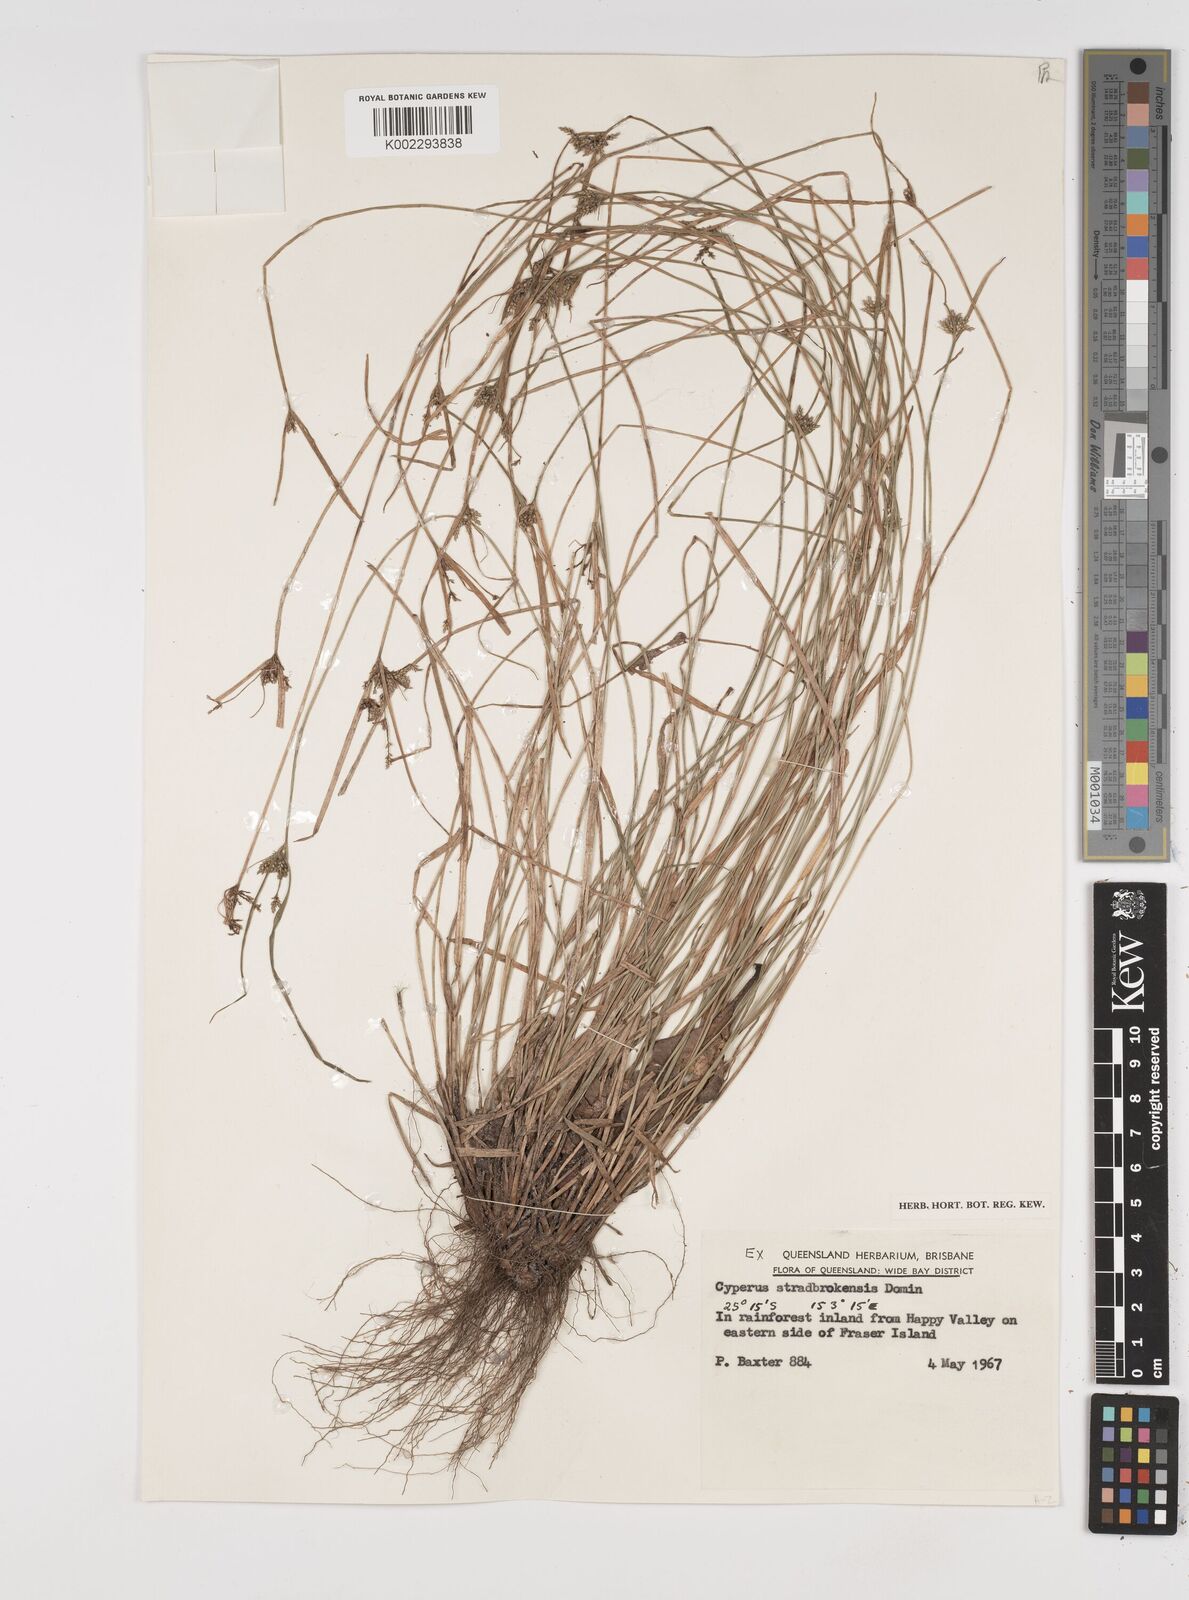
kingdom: Plantae
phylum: Tracheophyta
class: Liliopsida
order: Poales
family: Cyperaceae
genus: Cyperus
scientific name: Cyperus stradbrokensis
